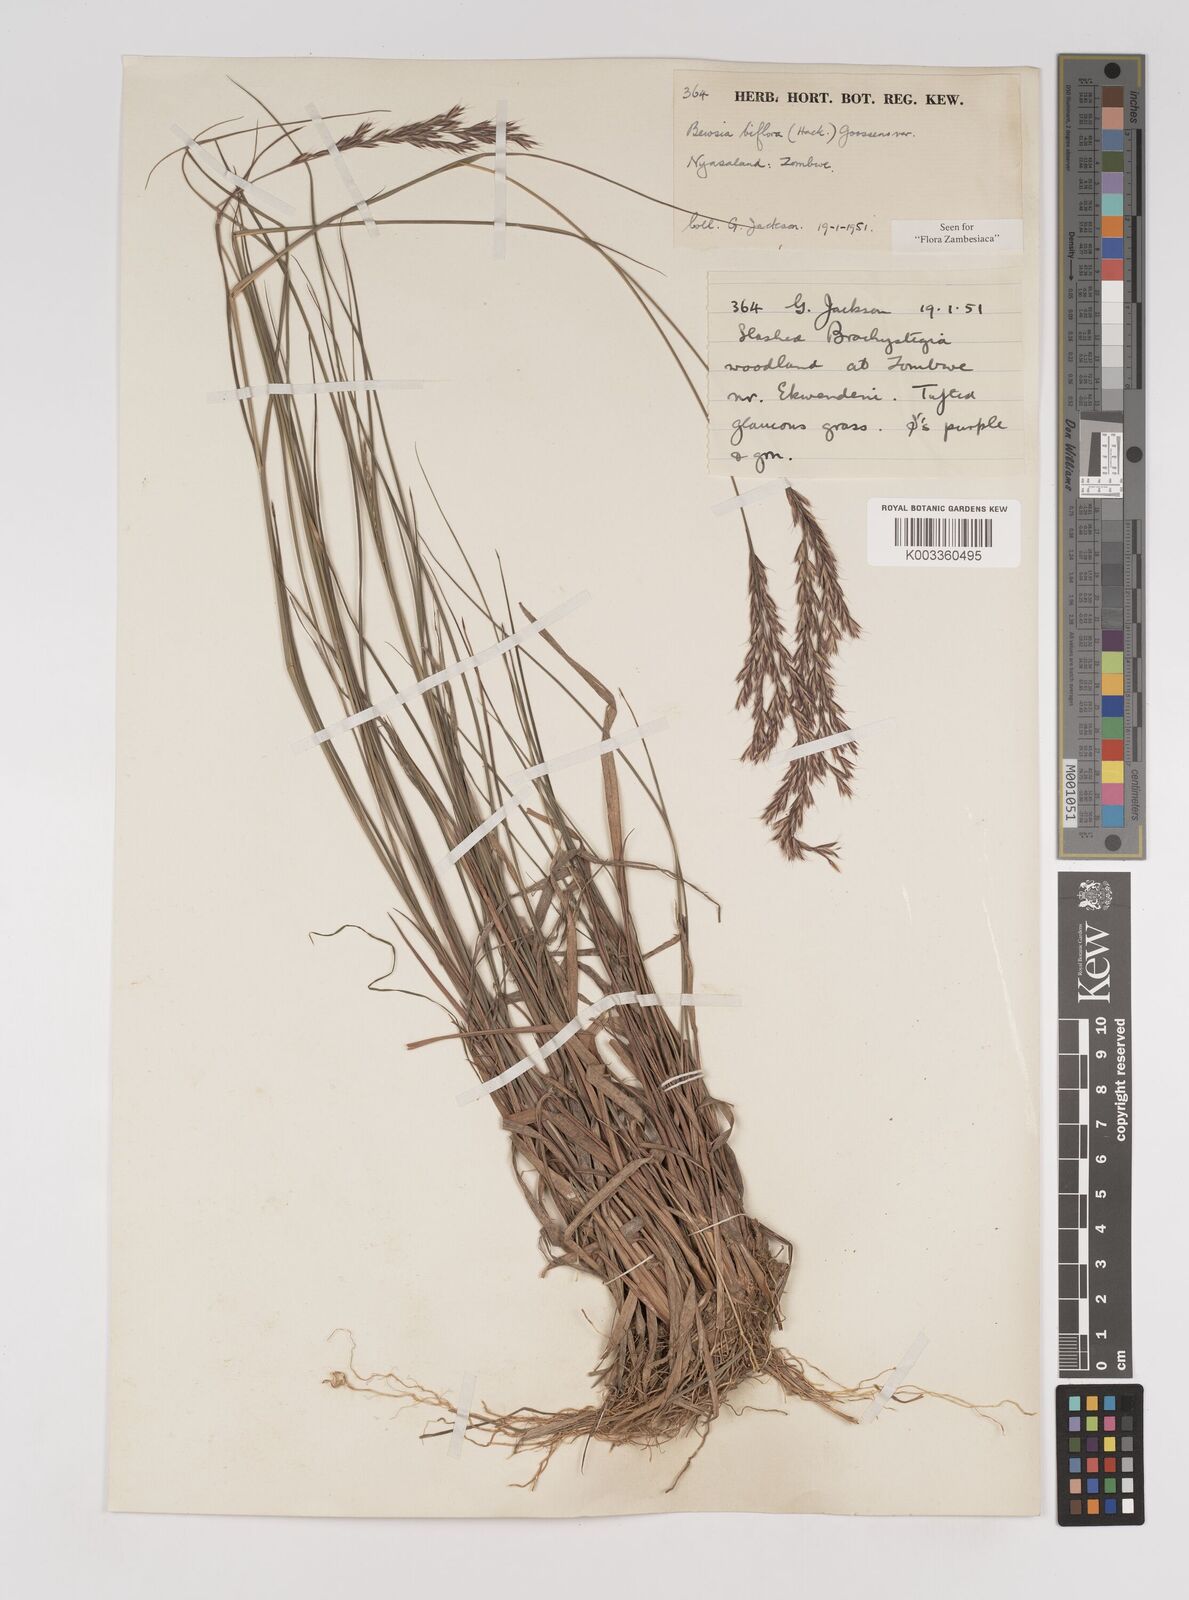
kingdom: Plantae
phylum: Tracheophyta
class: Liliopsida
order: Poales
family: Poaceae
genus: Bewsia
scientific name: Bewsia biflora
